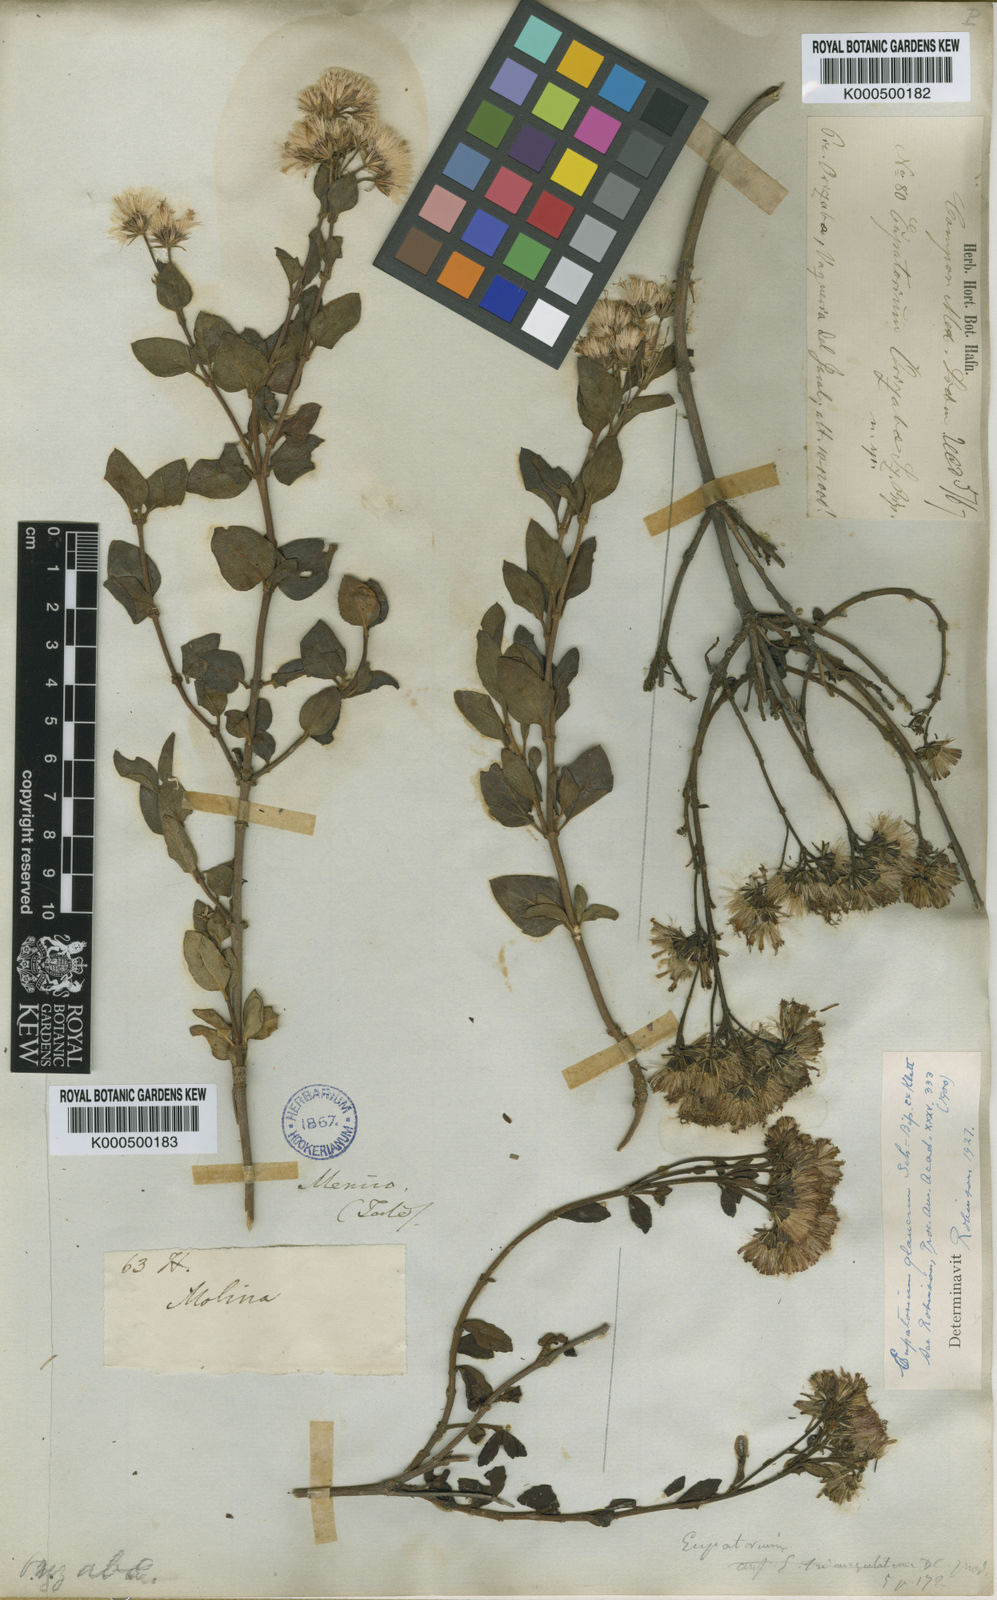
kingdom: Plantae
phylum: Tracheophyta
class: Magnoliopsida
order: Asterales
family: Asteraceae
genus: Ageratina
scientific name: Ageratina glauca
